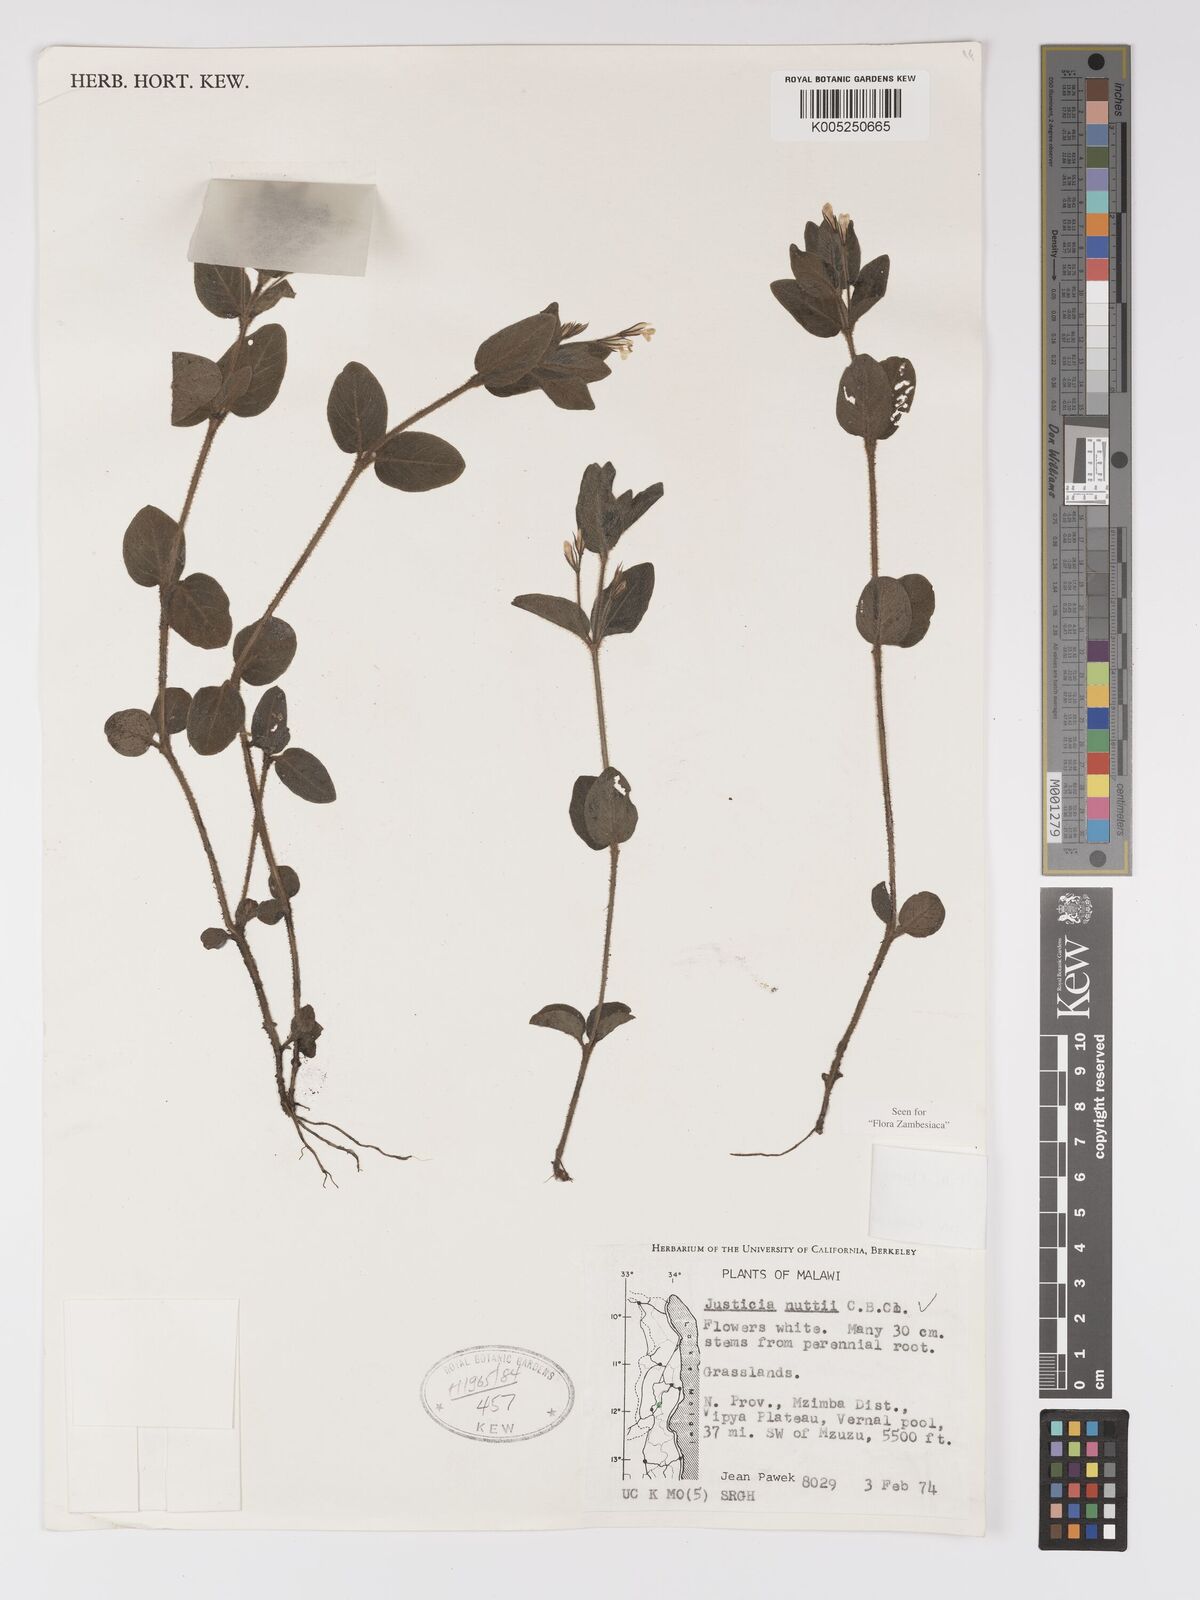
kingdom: Plantae
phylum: Tracheophyta
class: Magnoliopsida
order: Lamiales
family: Acanthaceae
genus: Justicia
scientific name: Justicia nuttii
